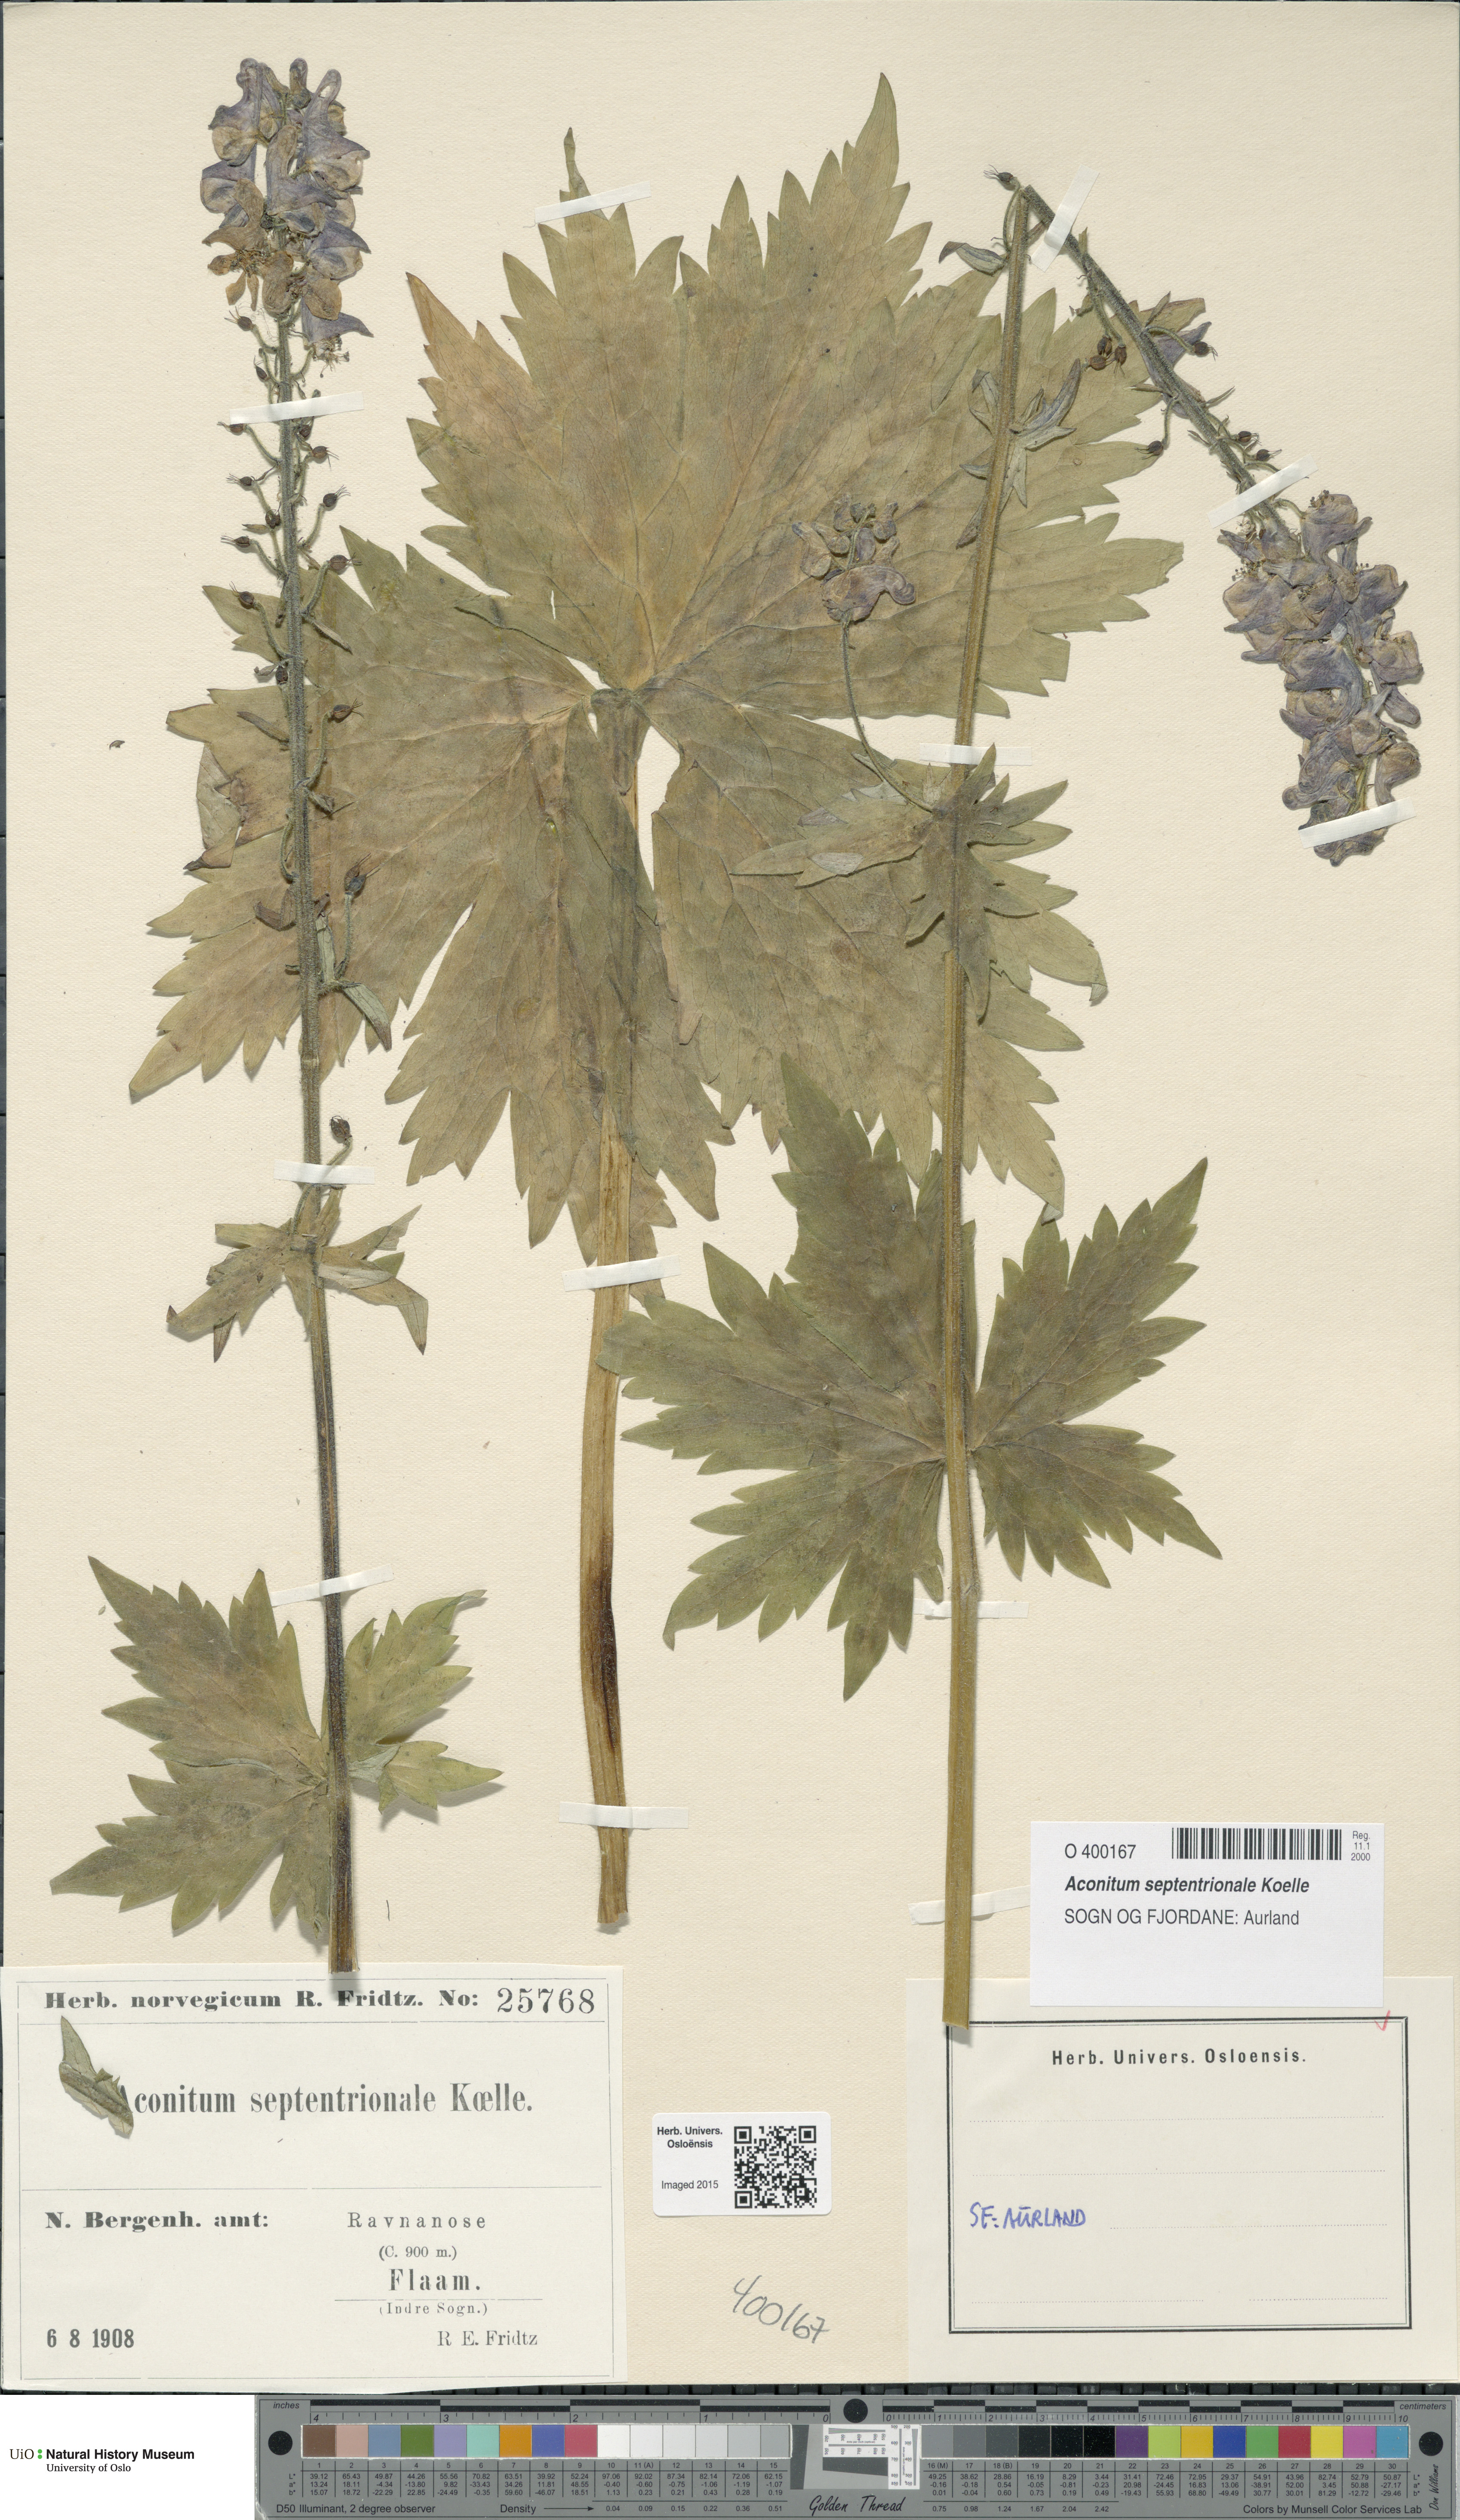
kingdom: Plantae
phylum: Tracheophyta
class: Magnoliopsida
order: Ranunculales
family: Ranunculaceae
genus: Aconitum
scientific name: Aconitum septentrionale
